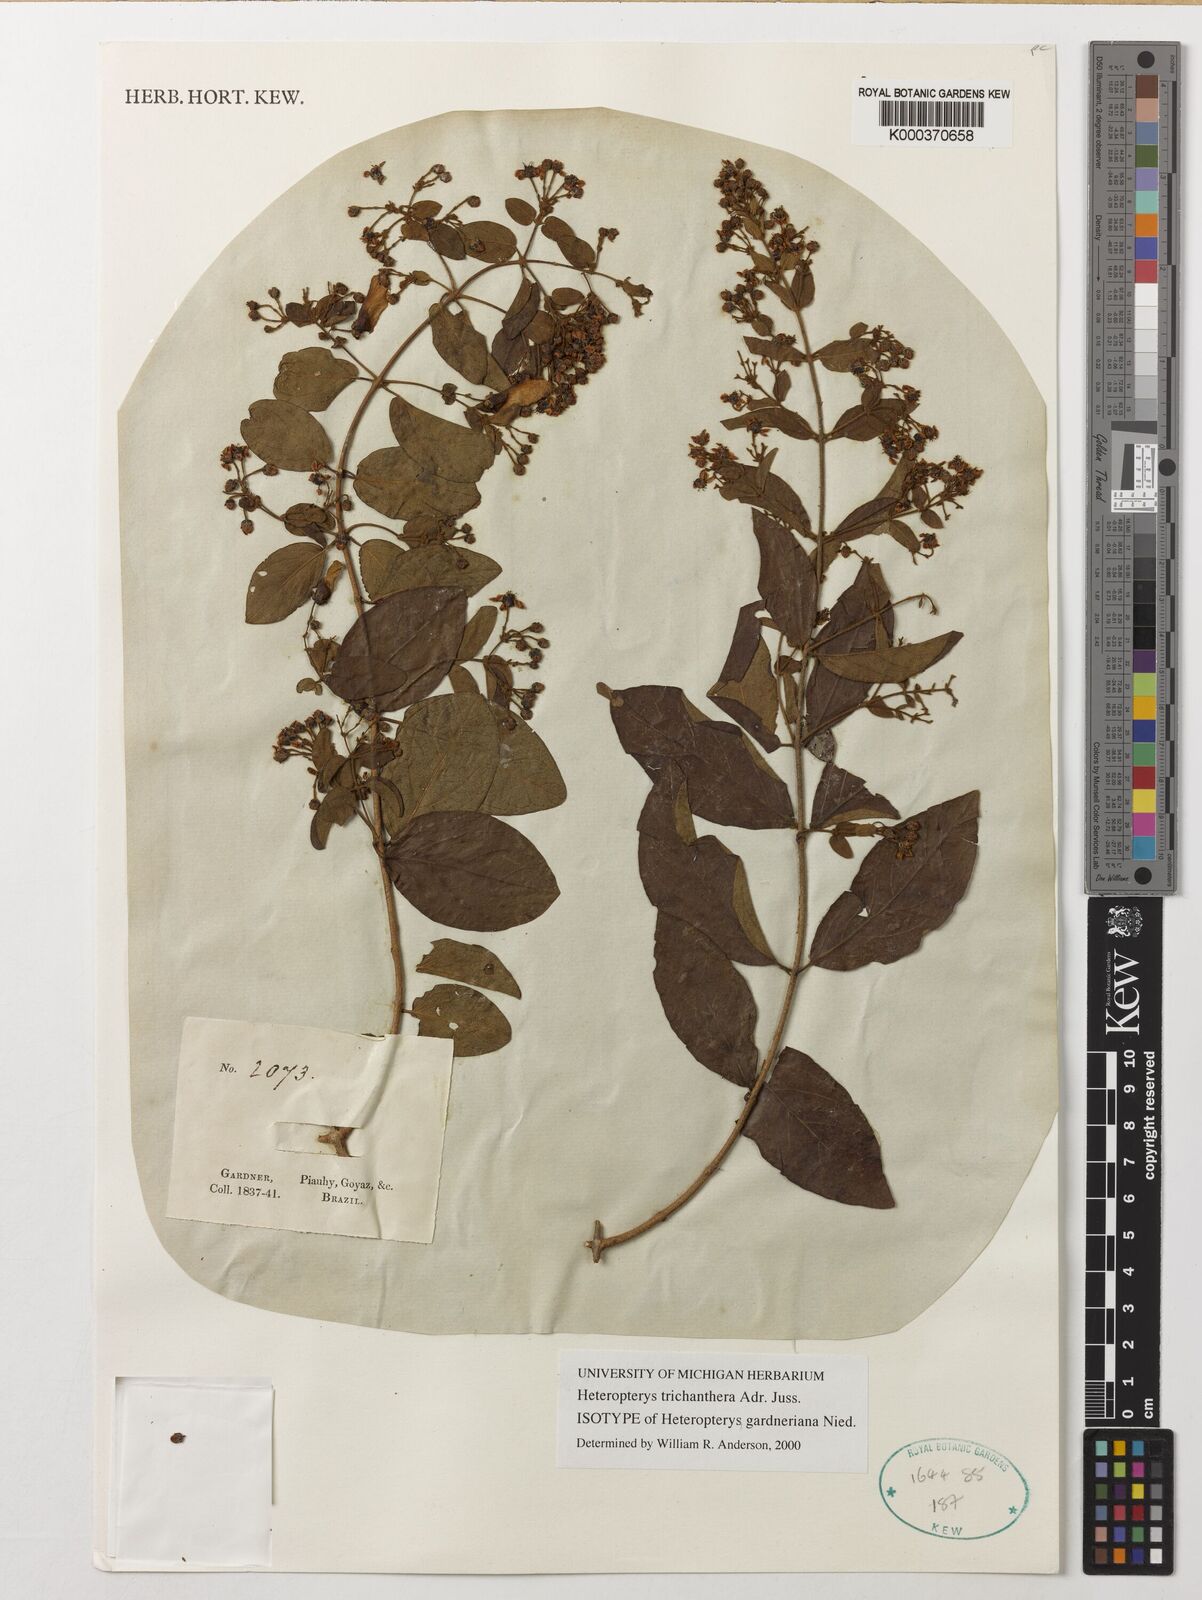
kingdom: Plantae
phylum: Tracheophyta
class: Magnoliopsida
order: Malpighiales
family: Malpighiaceae
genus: Heteropterys
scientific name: Heteropterys trichanthera
